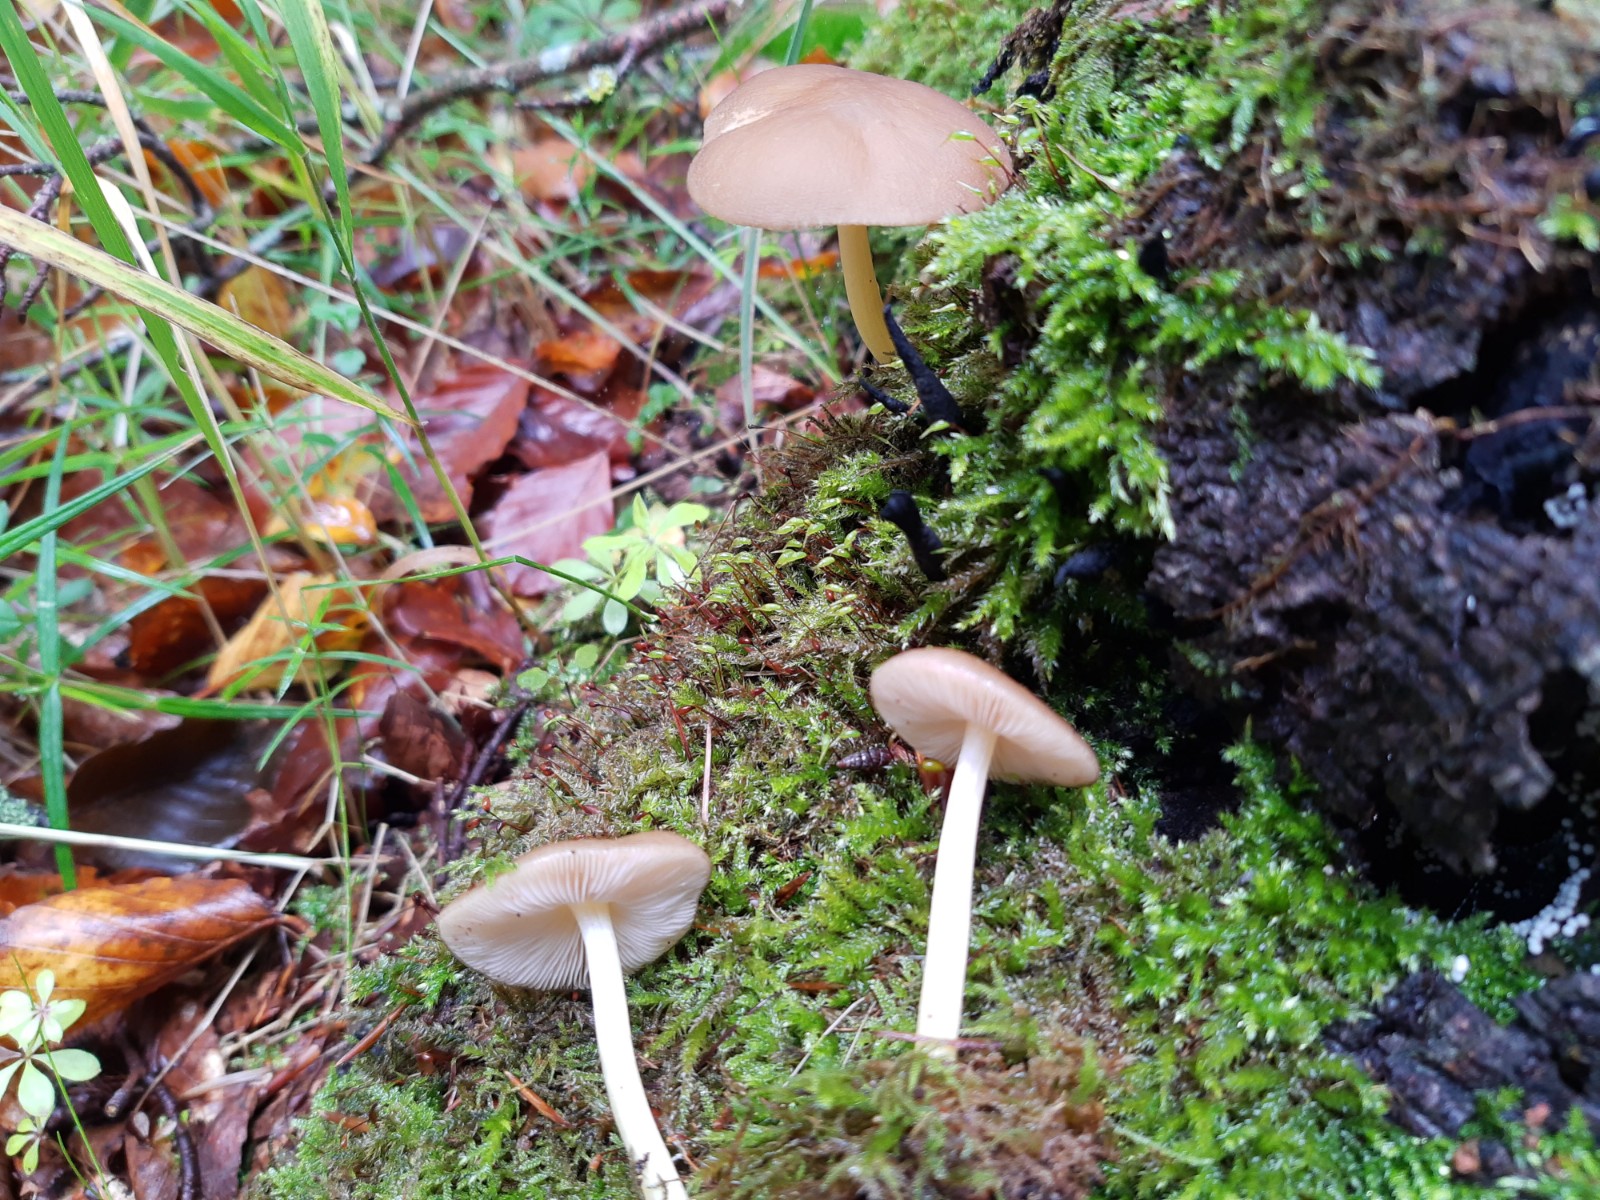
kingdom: Fungi
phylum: Basidiomycota
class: Agaricomycetes
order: Agaricales
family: Pluteaceae
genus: Pluteus
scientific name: Pluteus romellii
